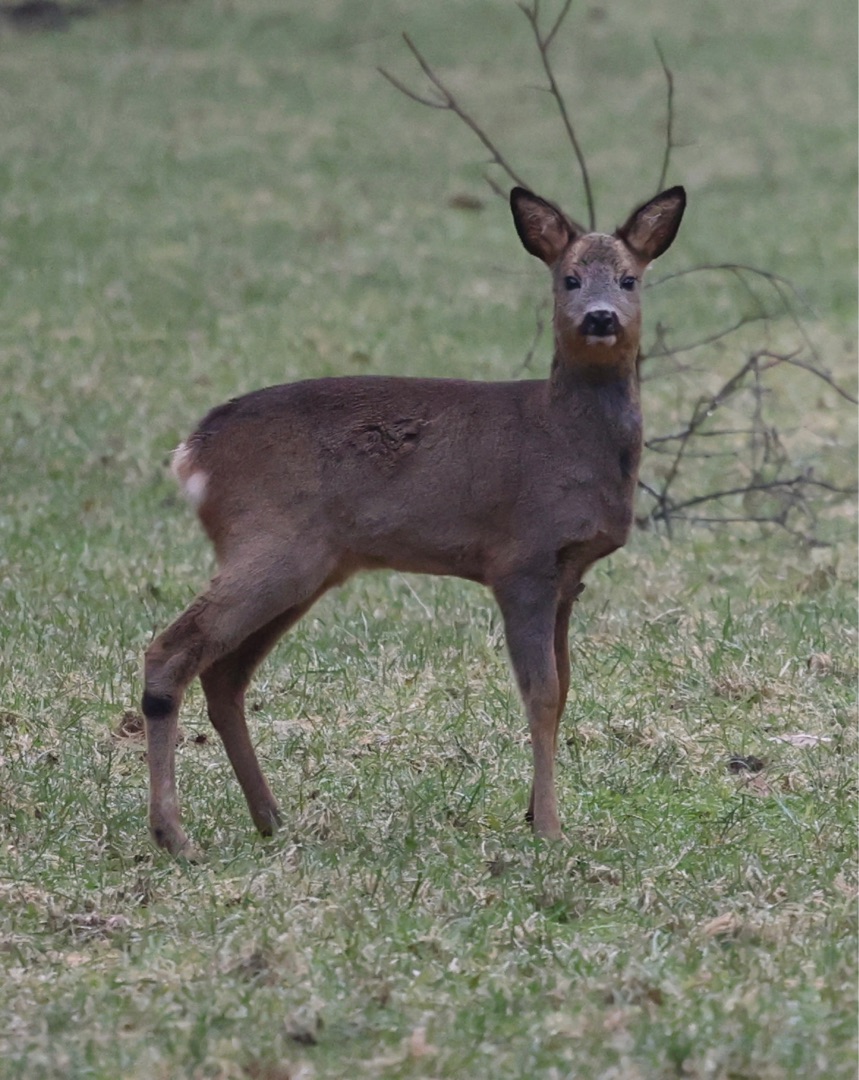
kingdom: Animalia
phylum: Chordata
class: Mammalia
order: Artiodactyla
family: Cervidae
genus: Capreolus
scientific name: Capreolus capreolus
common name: Rådyr
